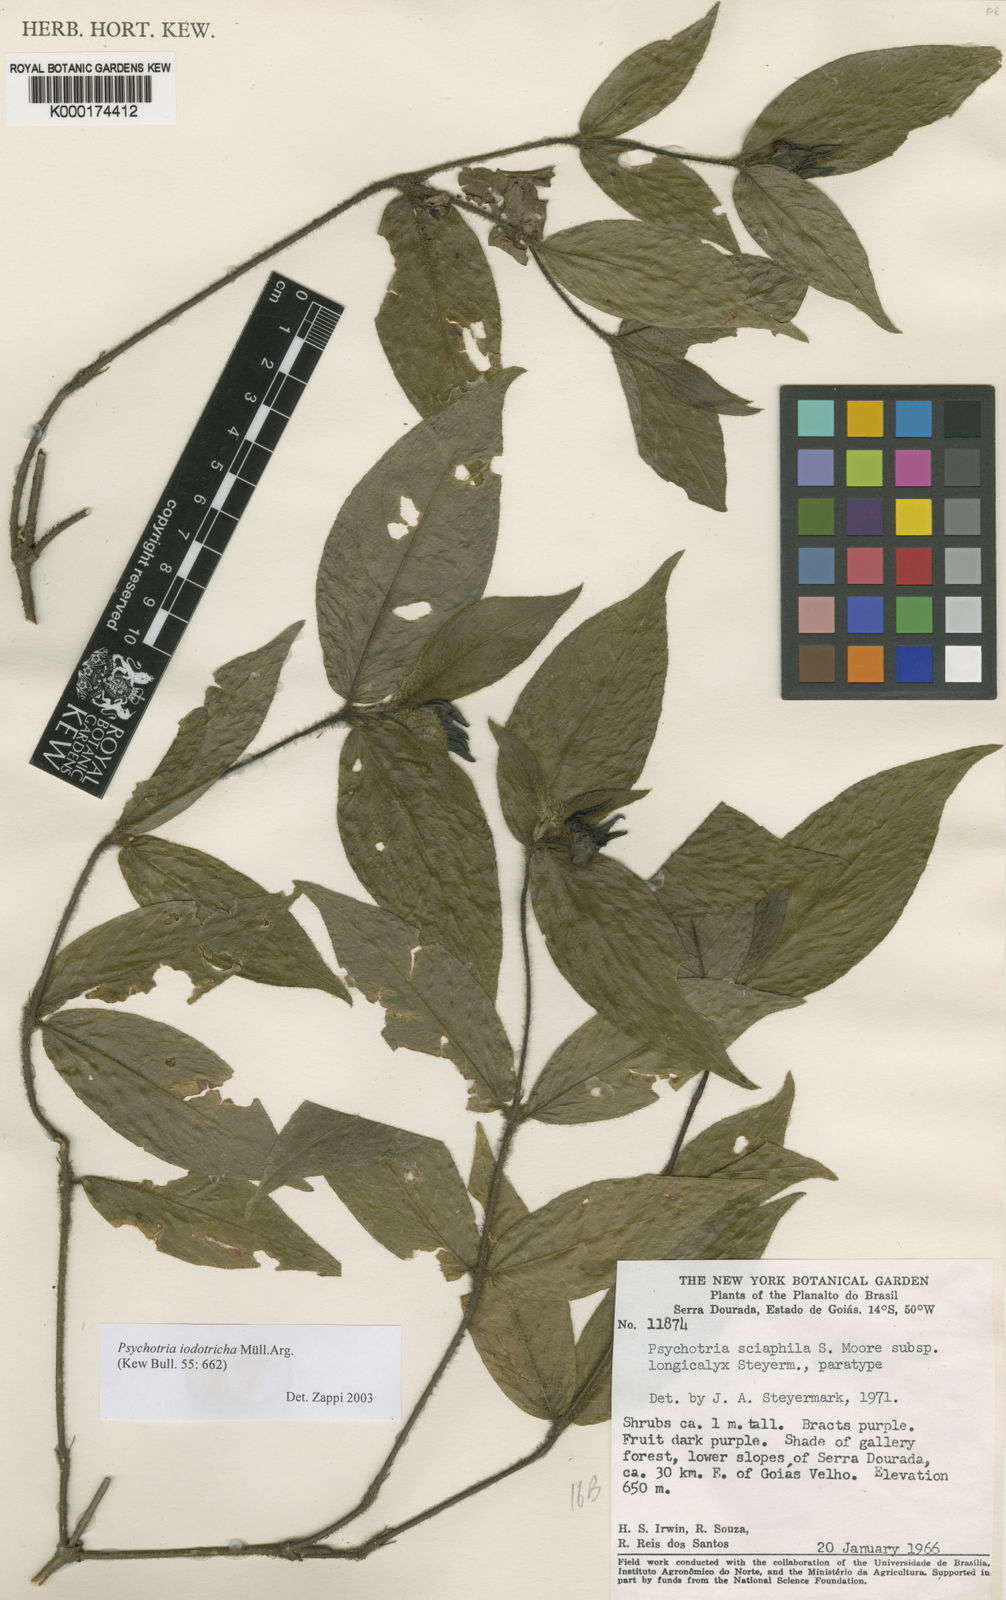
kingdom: Plantae
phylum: Tracheophyta
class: Magnoliopsida
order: Gentianales
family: Rubiaceae
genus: Psychotria
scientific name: Psychotria
